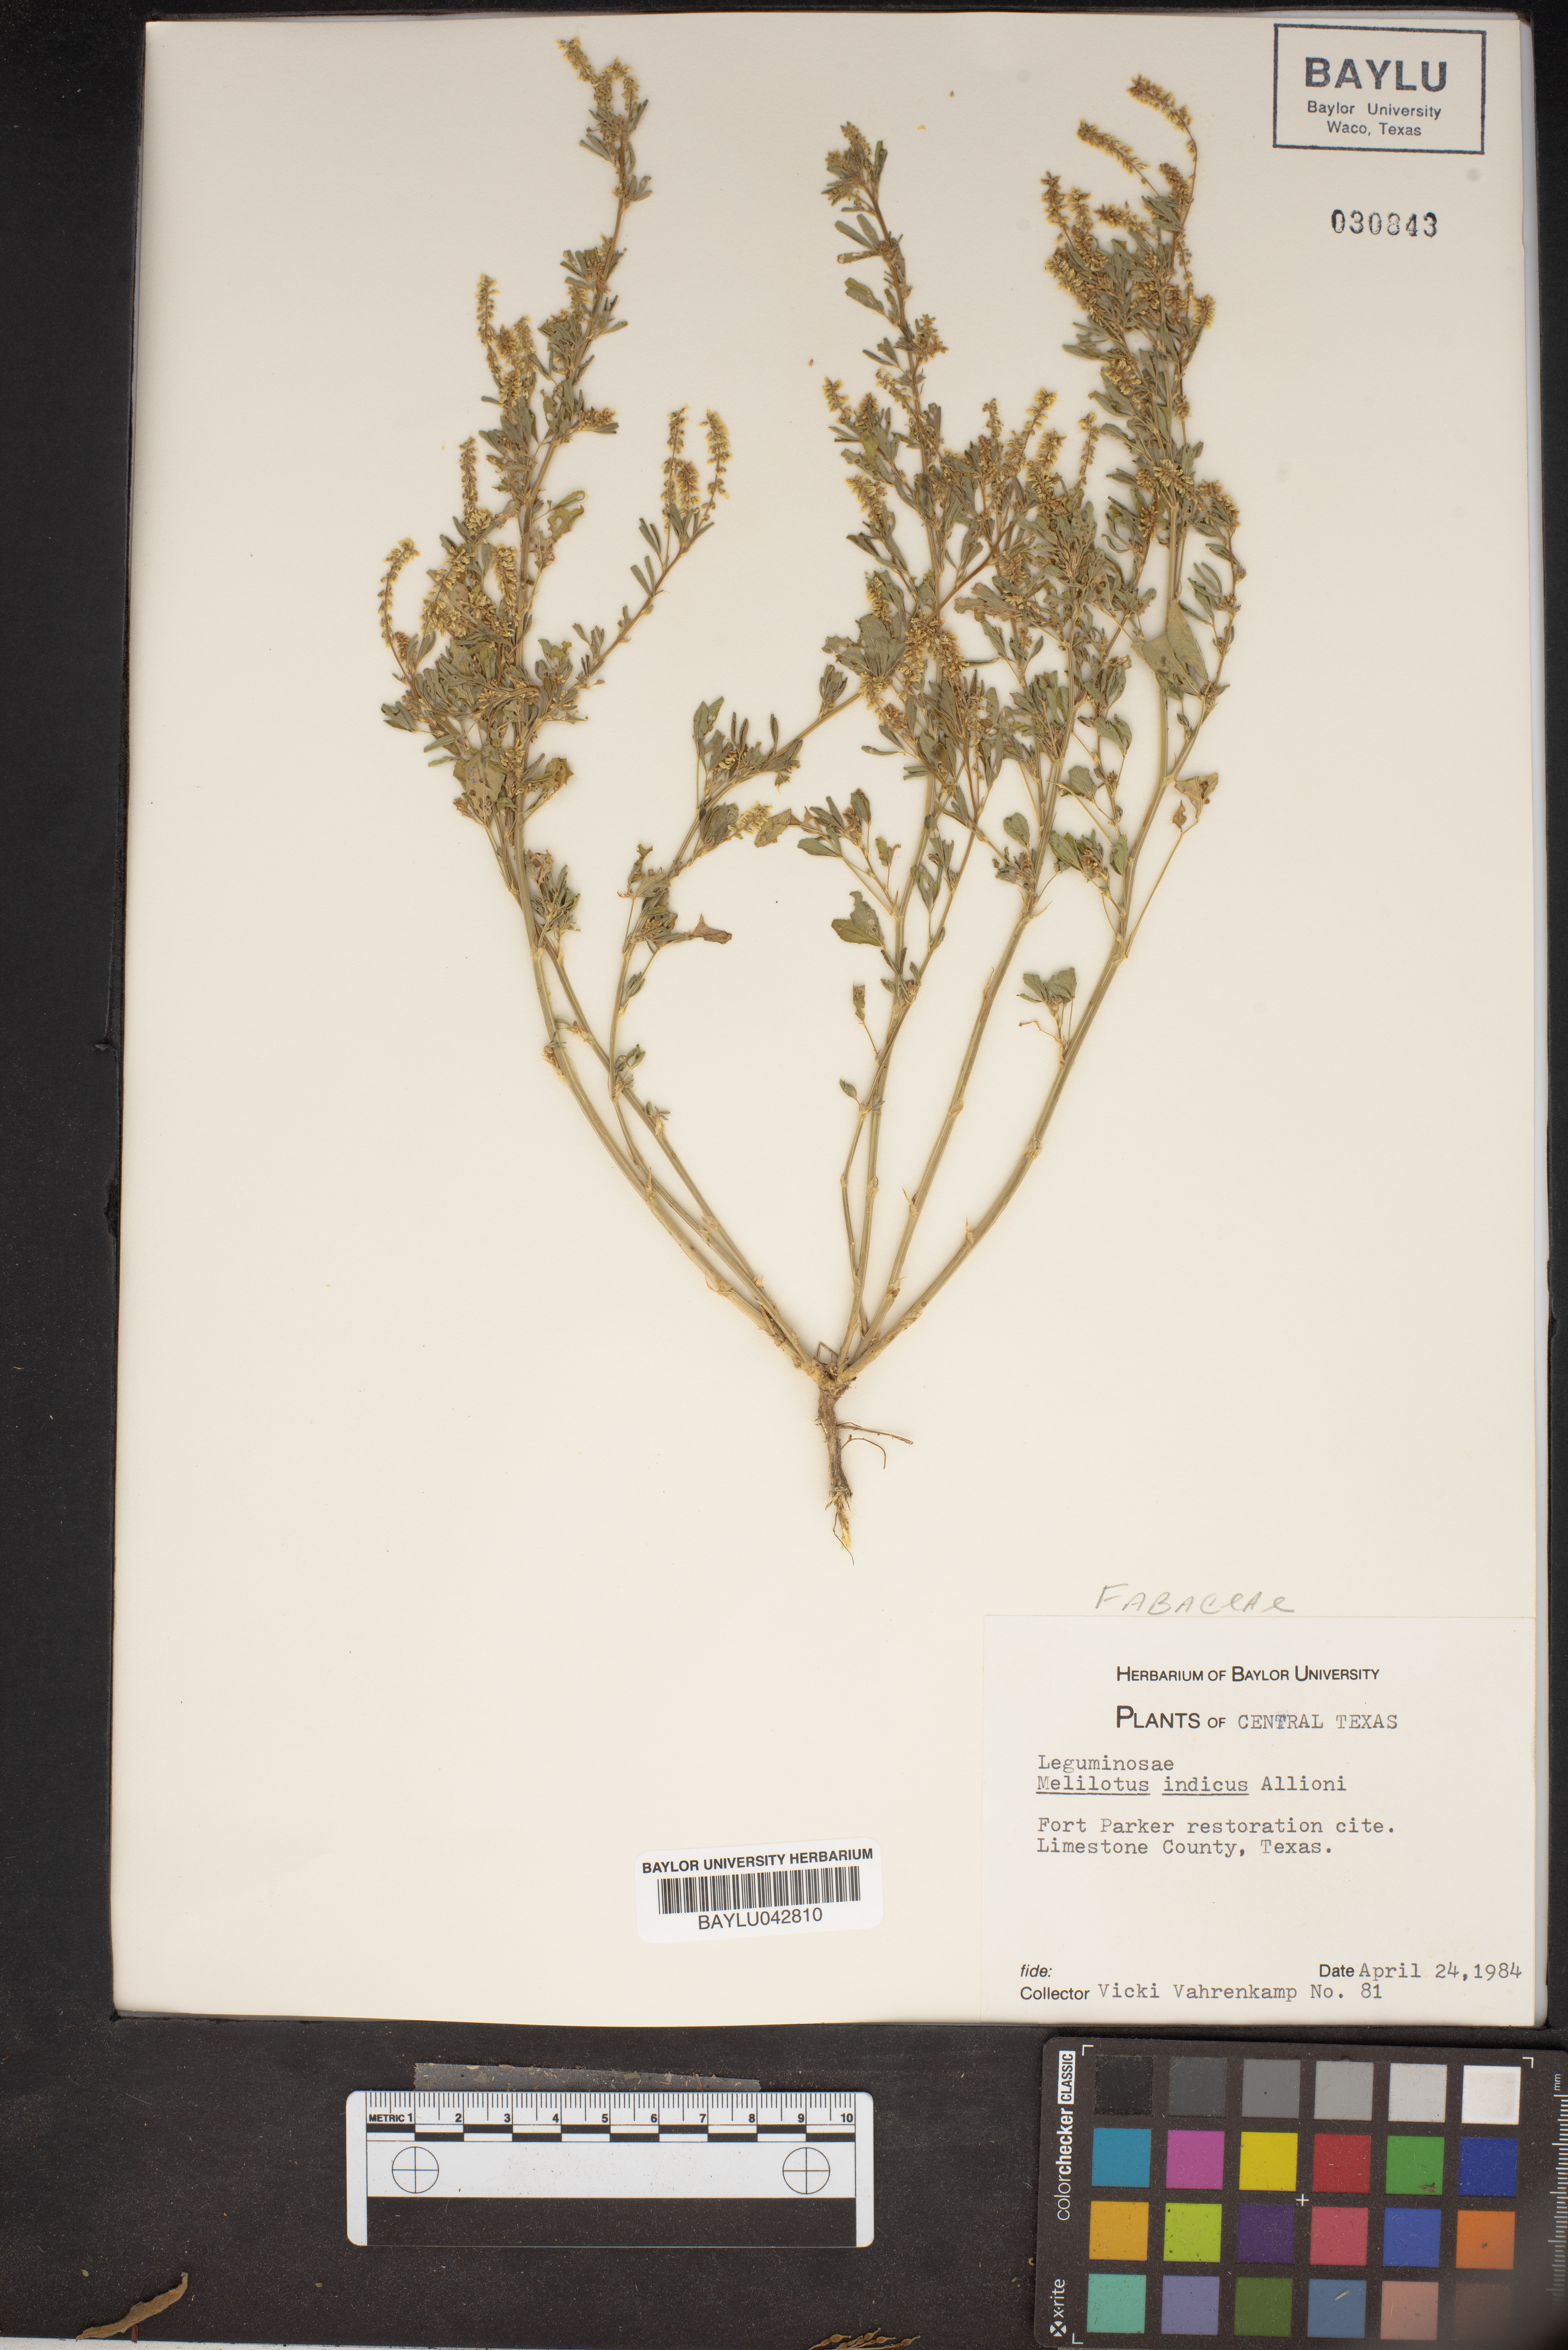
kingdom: Plantae
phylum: Tracheophyta
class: Magnoliopsida
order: Fabales
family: Fabaceae
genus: Melilotus
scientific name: Melilotus indicus
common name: Small melilot
